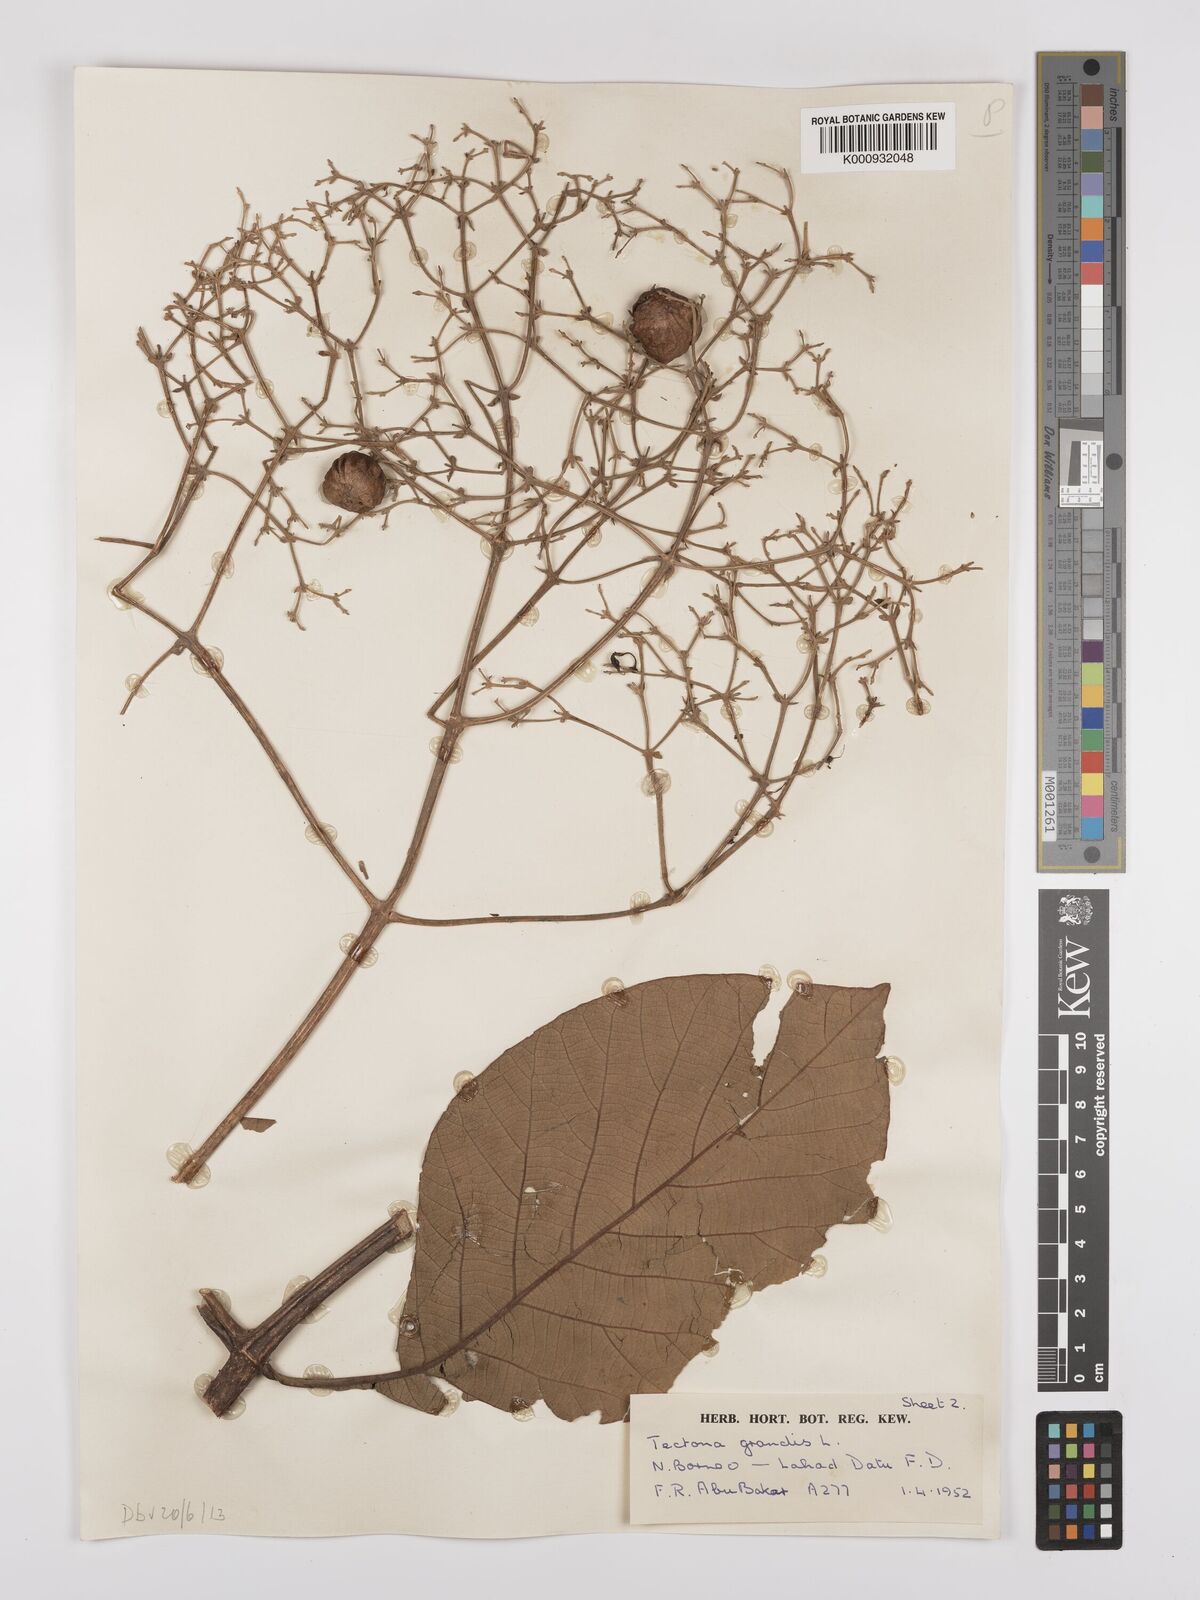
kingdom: Plantae
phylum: Tracheophyta
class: Magnoliopsida
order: Lamiales
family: Lamiaceae
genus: Tectona
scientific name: Tectona grandis
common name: Teak
